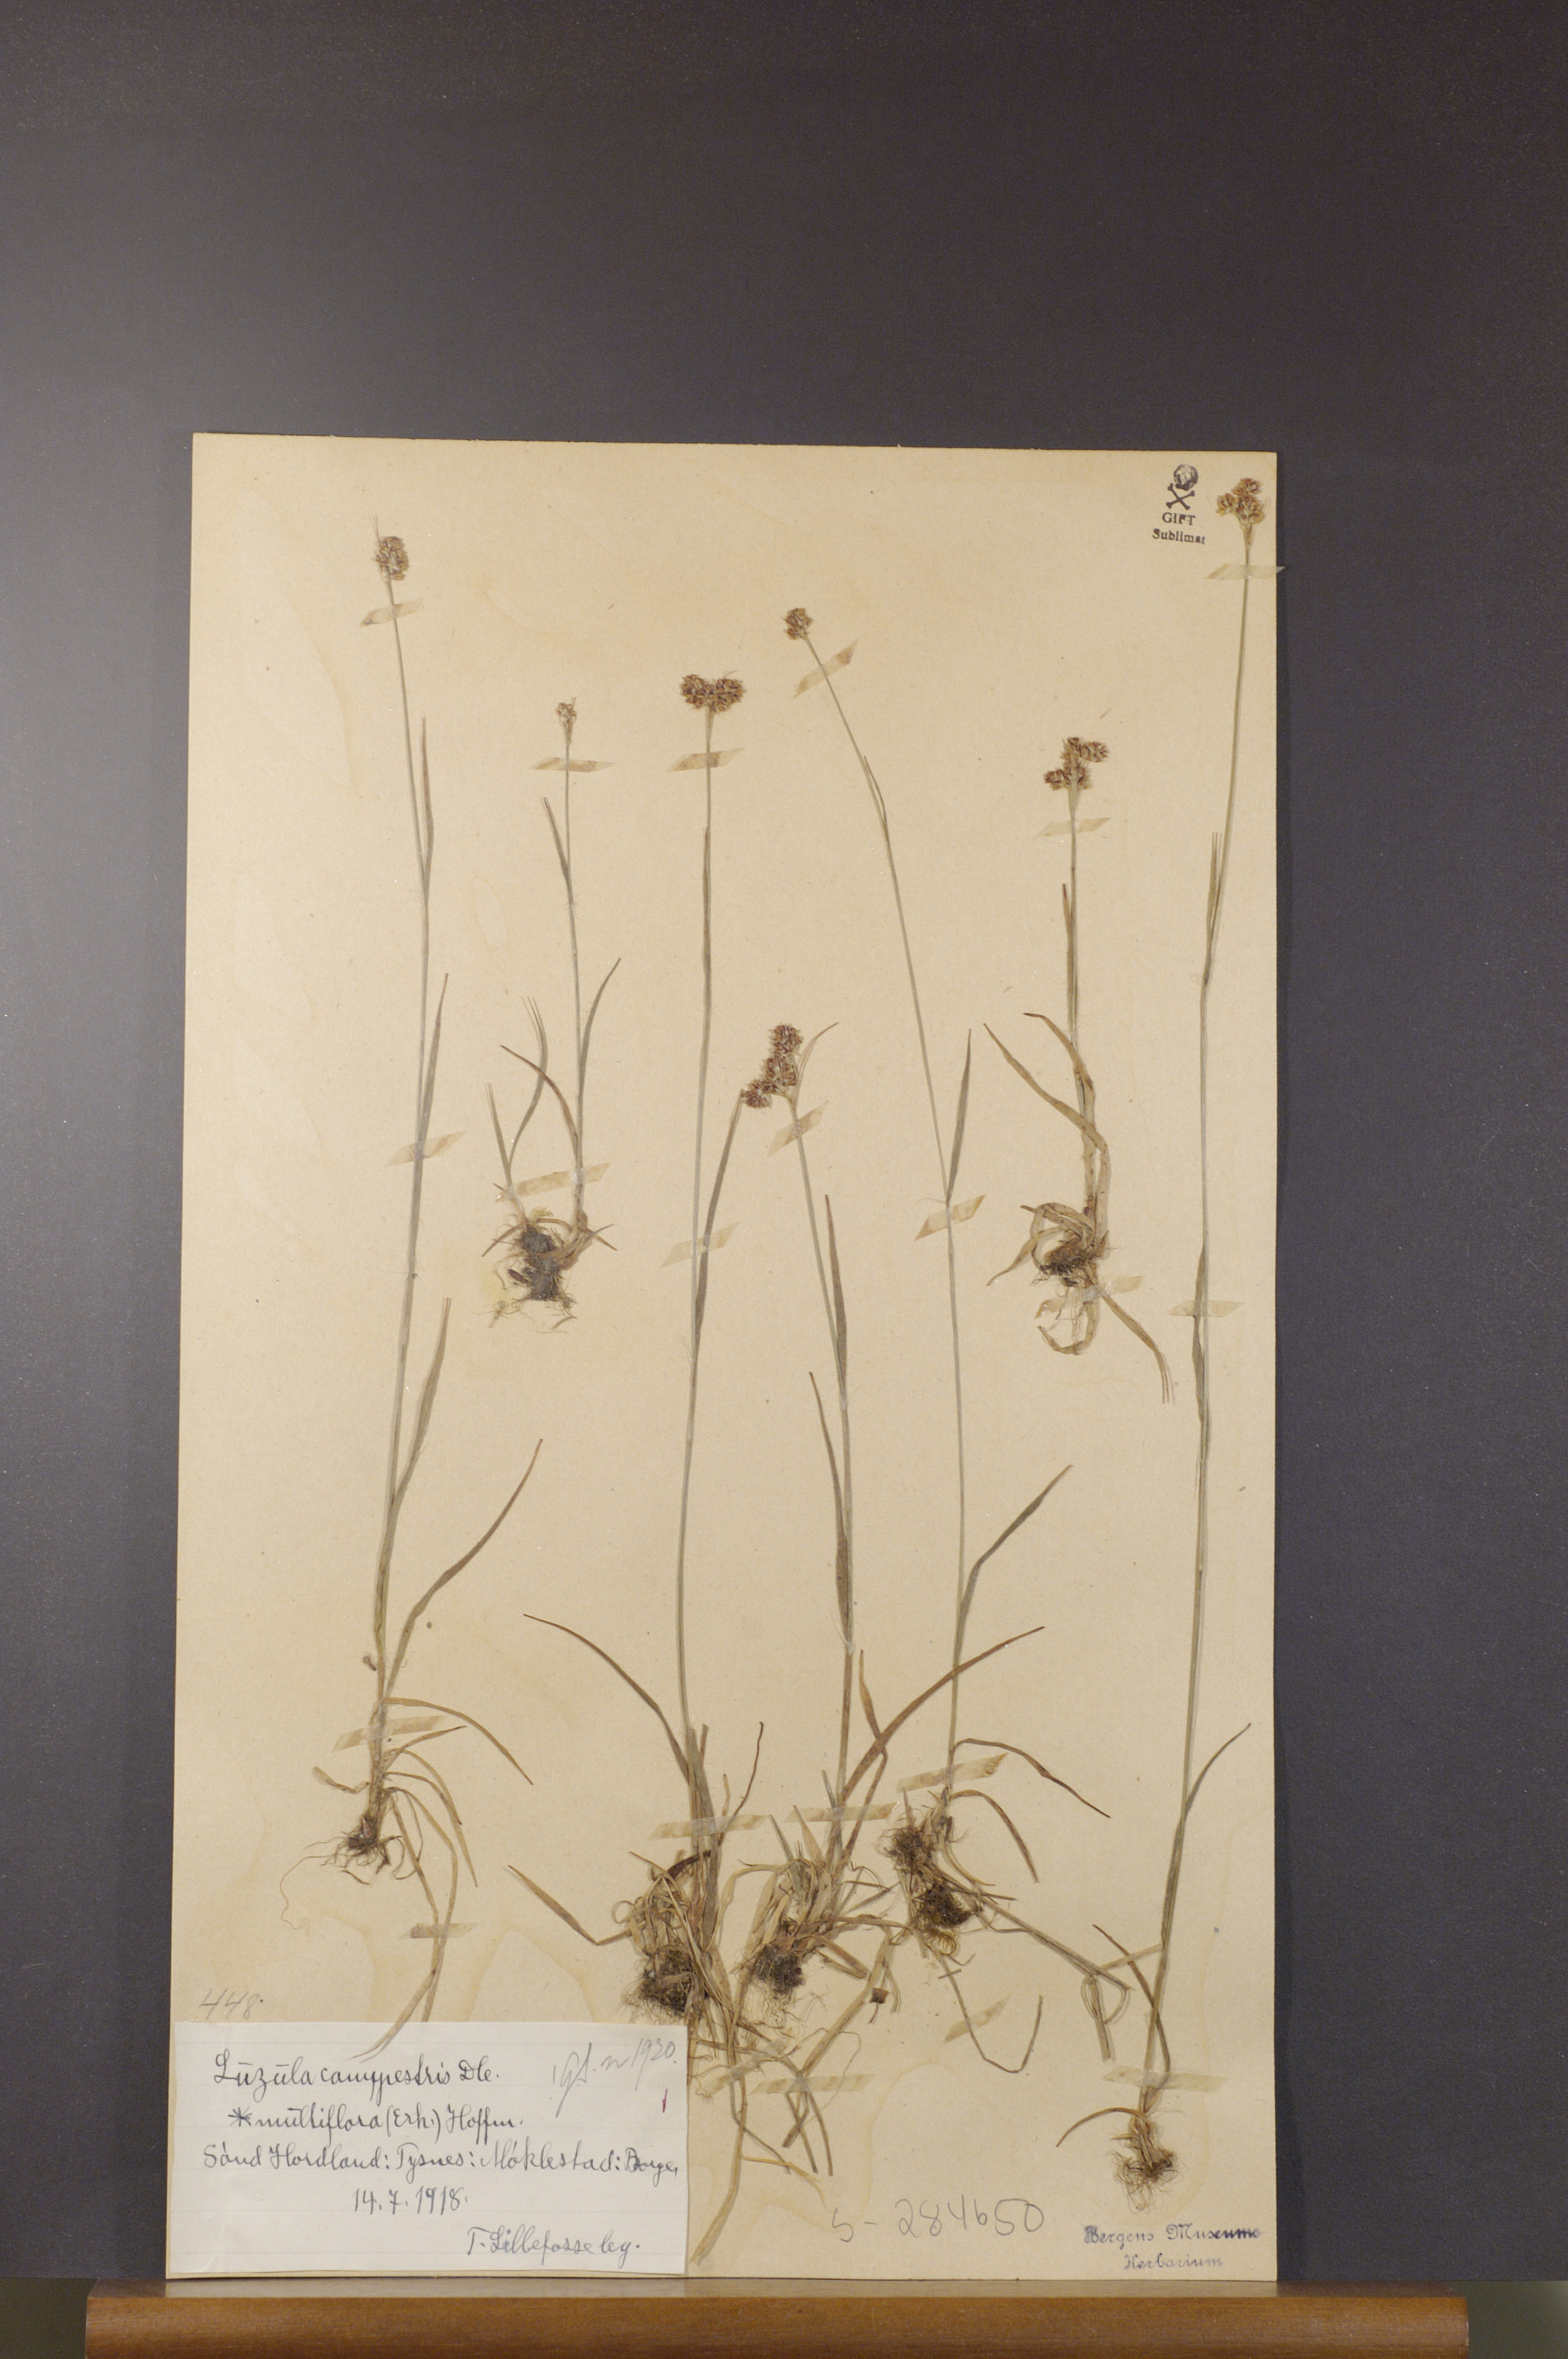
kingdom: Plantae
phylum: Tracheophyta
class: Liliopsida
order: Poales
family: Juncaceae
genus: Luzula
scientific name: Luzula multiflora
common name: Heath wood-rush
